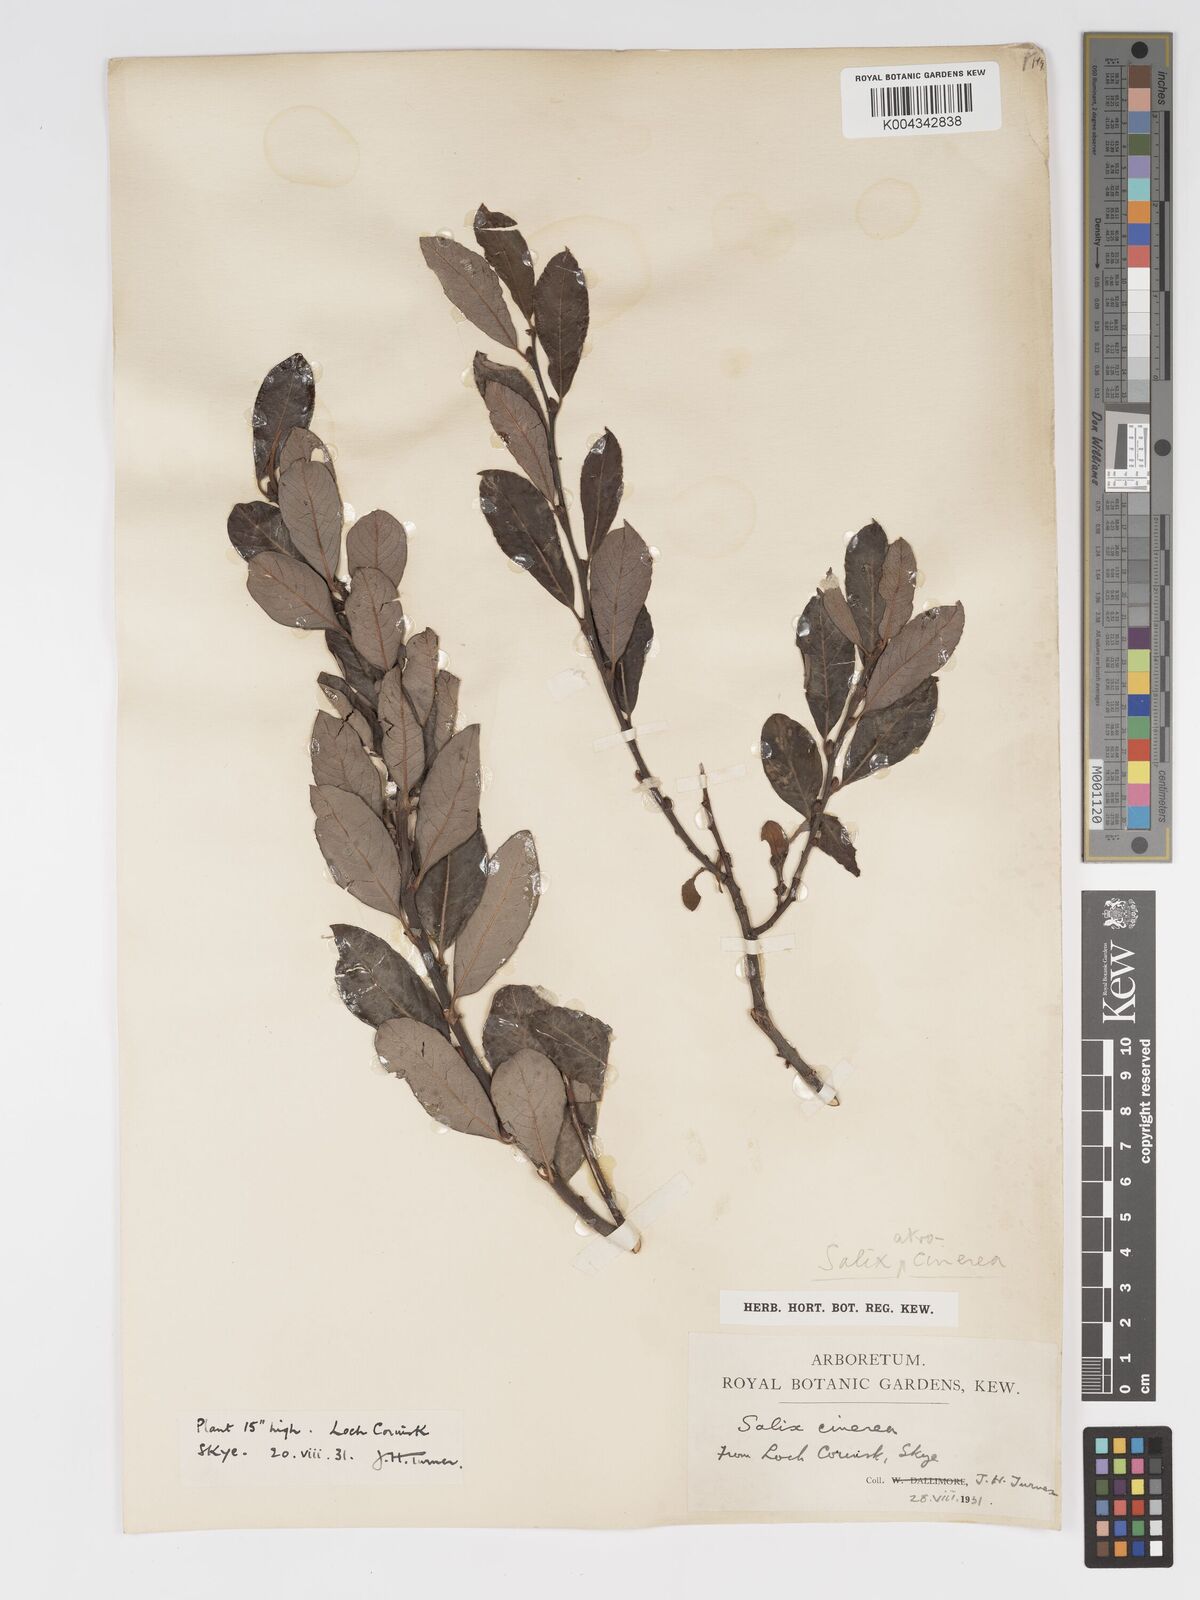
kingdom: Plantae
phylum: Tracheophyta
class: Magnoliopsida
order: Malpighiales
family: Salicaceae
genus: Salix
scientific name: Salix atrocinerea
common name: Rusty willow
